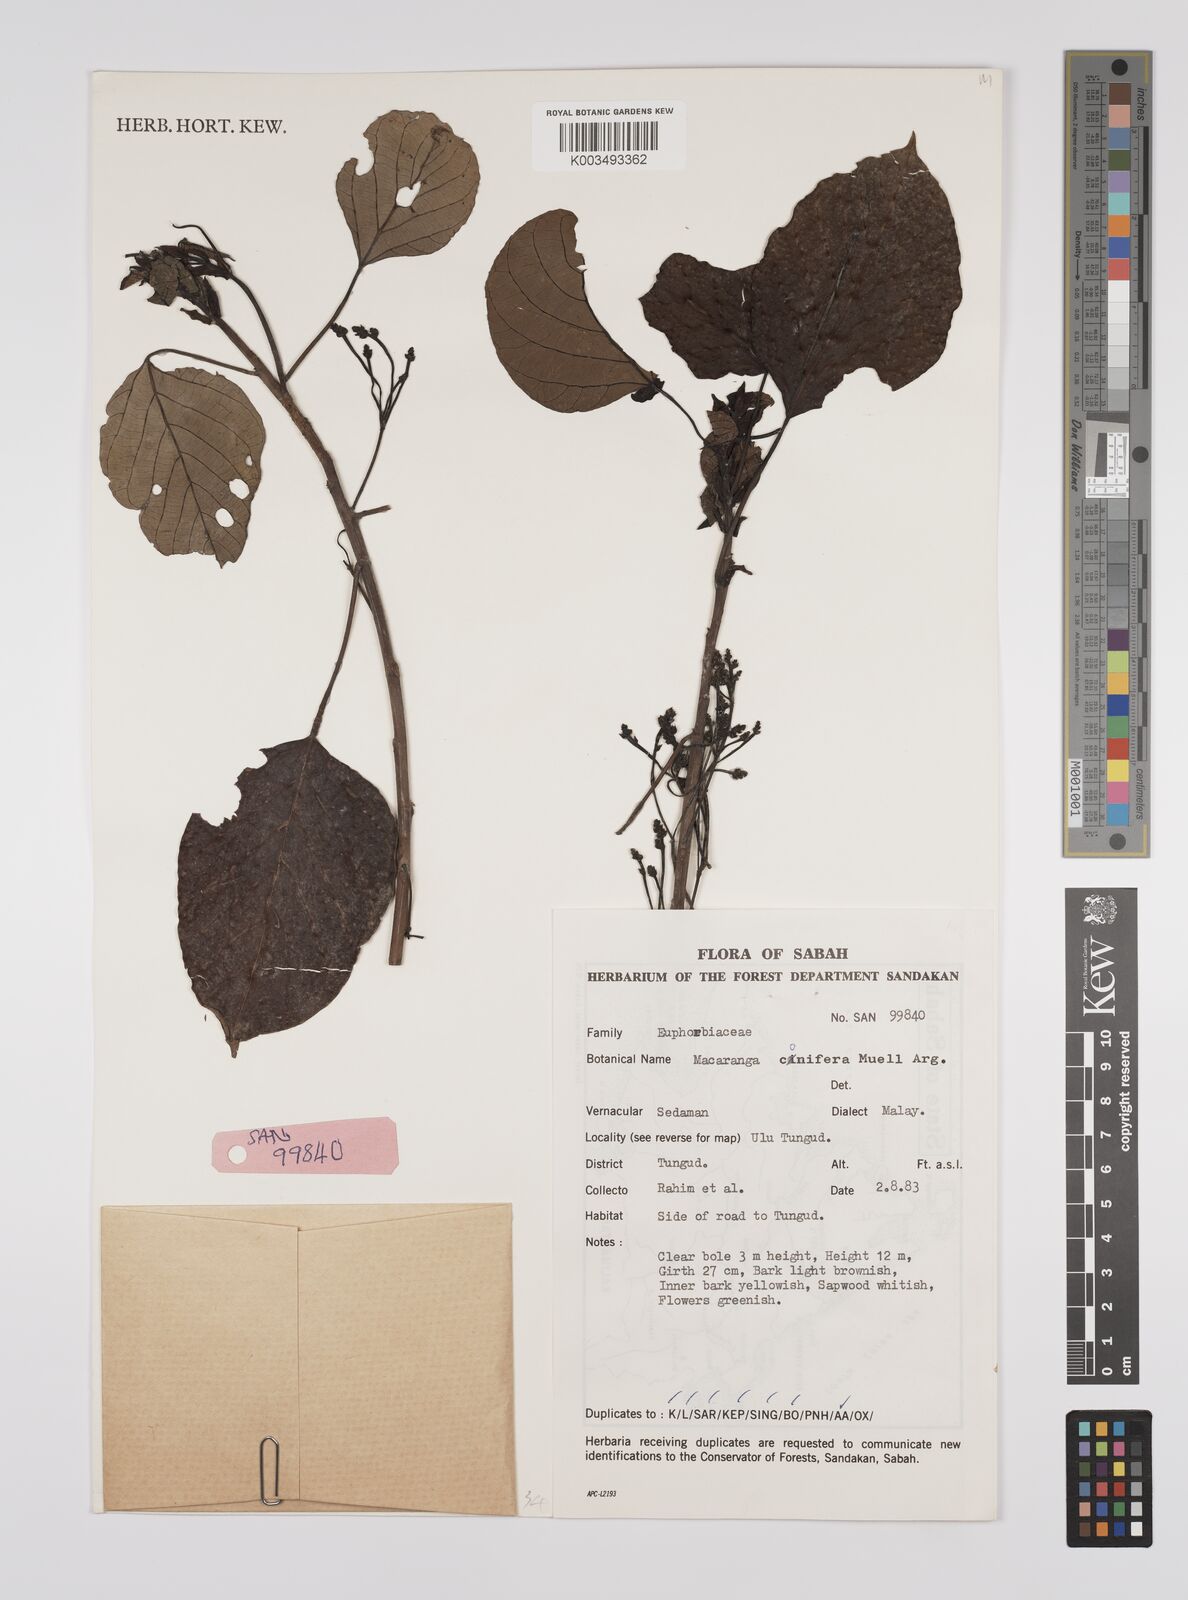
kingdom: Plantae
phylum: Tracheophyta
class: Magnoliopsida
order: Malpighiales
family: Euphorbiaceae
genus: Macaranga
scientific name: Macaranga conifera
